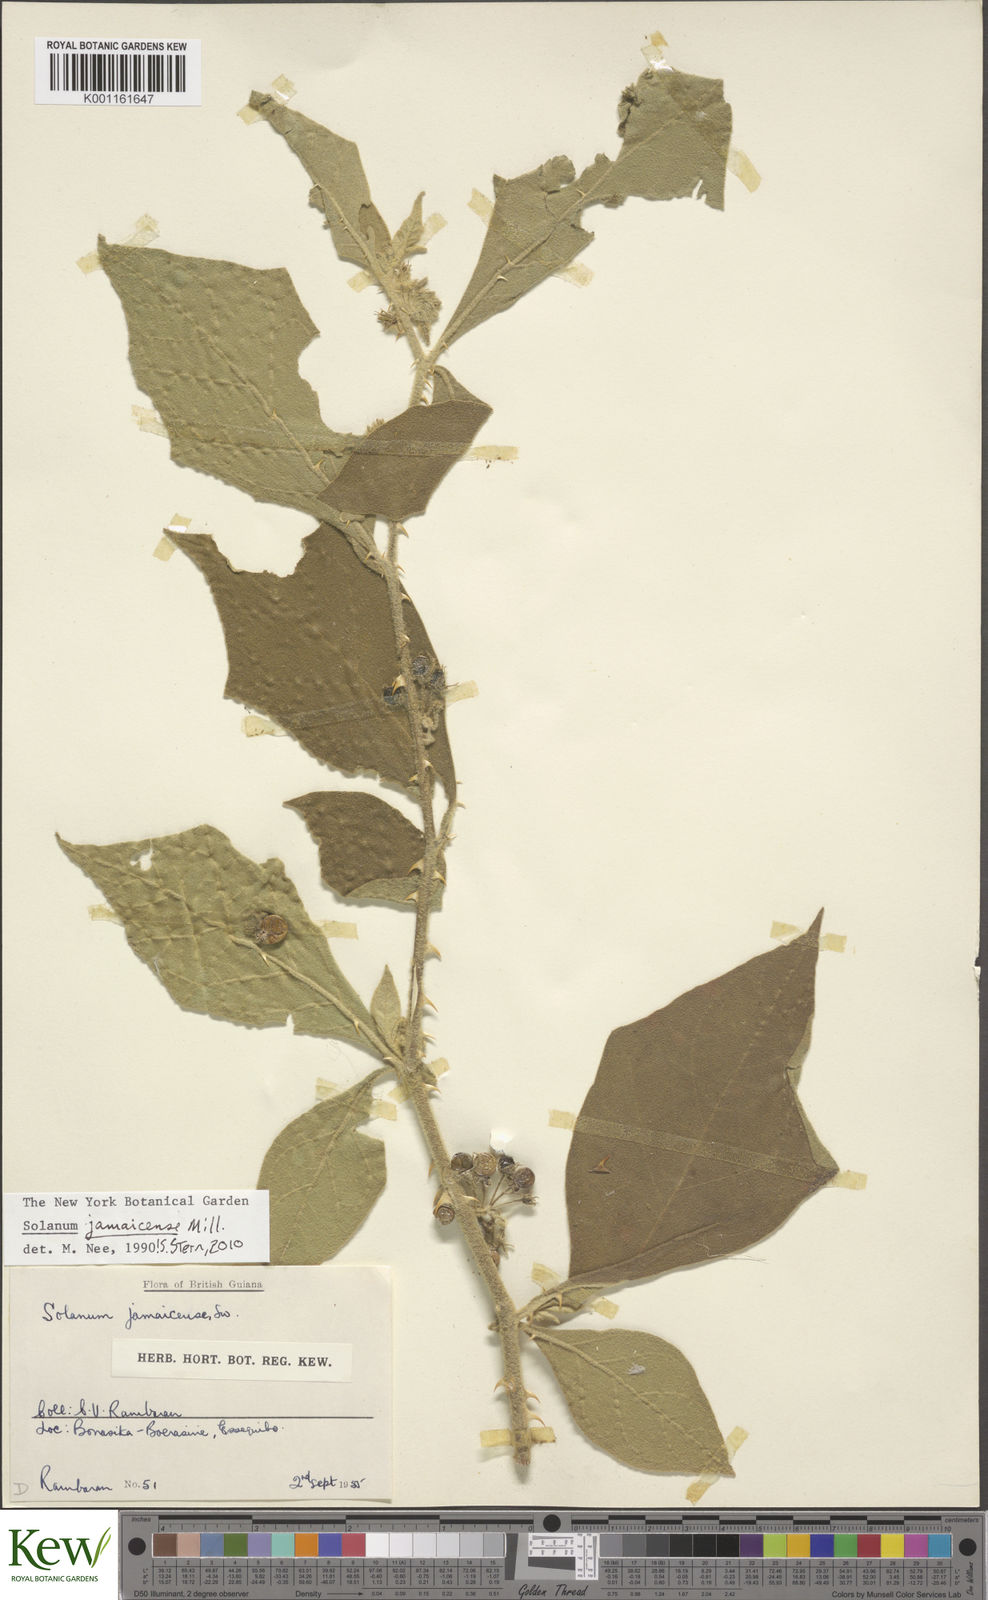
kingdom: Plantae
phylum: Tracheophyta
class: Magnoliopsida
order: Solanales
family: Solanaceae
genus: Solanum
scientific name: Solanum jamaicense
